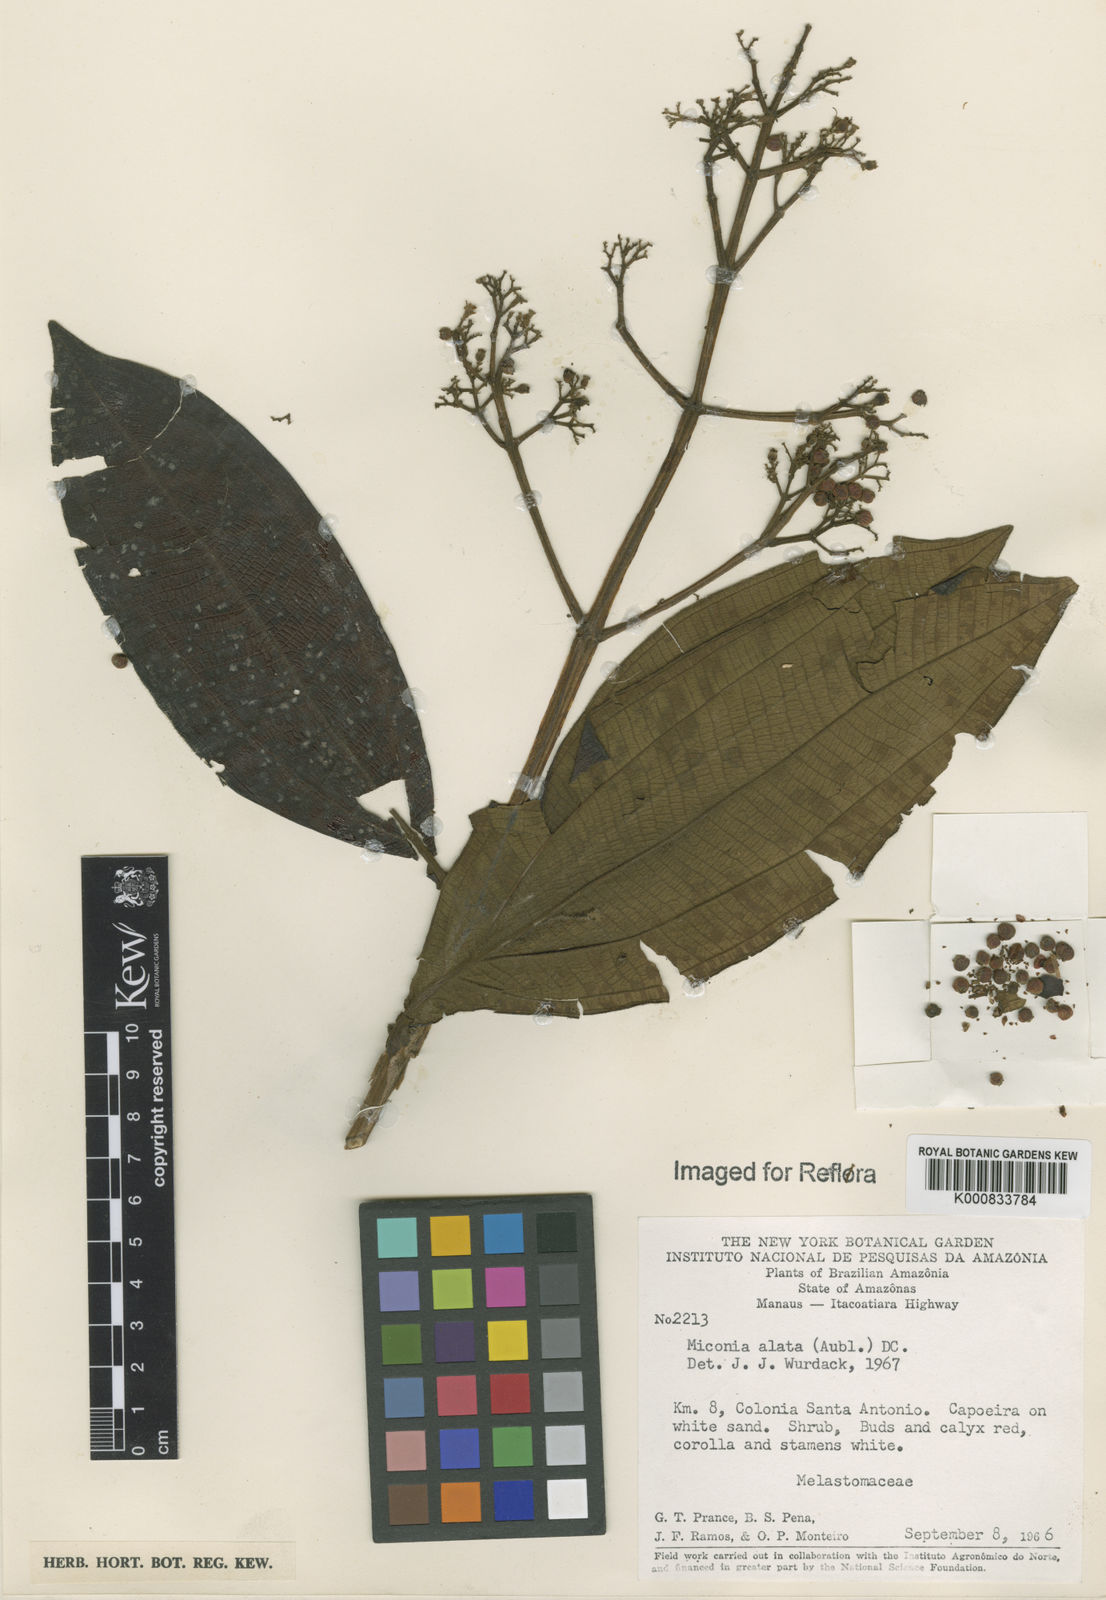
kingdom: Plantae
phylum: Tracheophyta
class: Magnoliopsida
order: Myrtales
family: Melastomataceae
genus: Miconia
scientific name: Miconia alata
